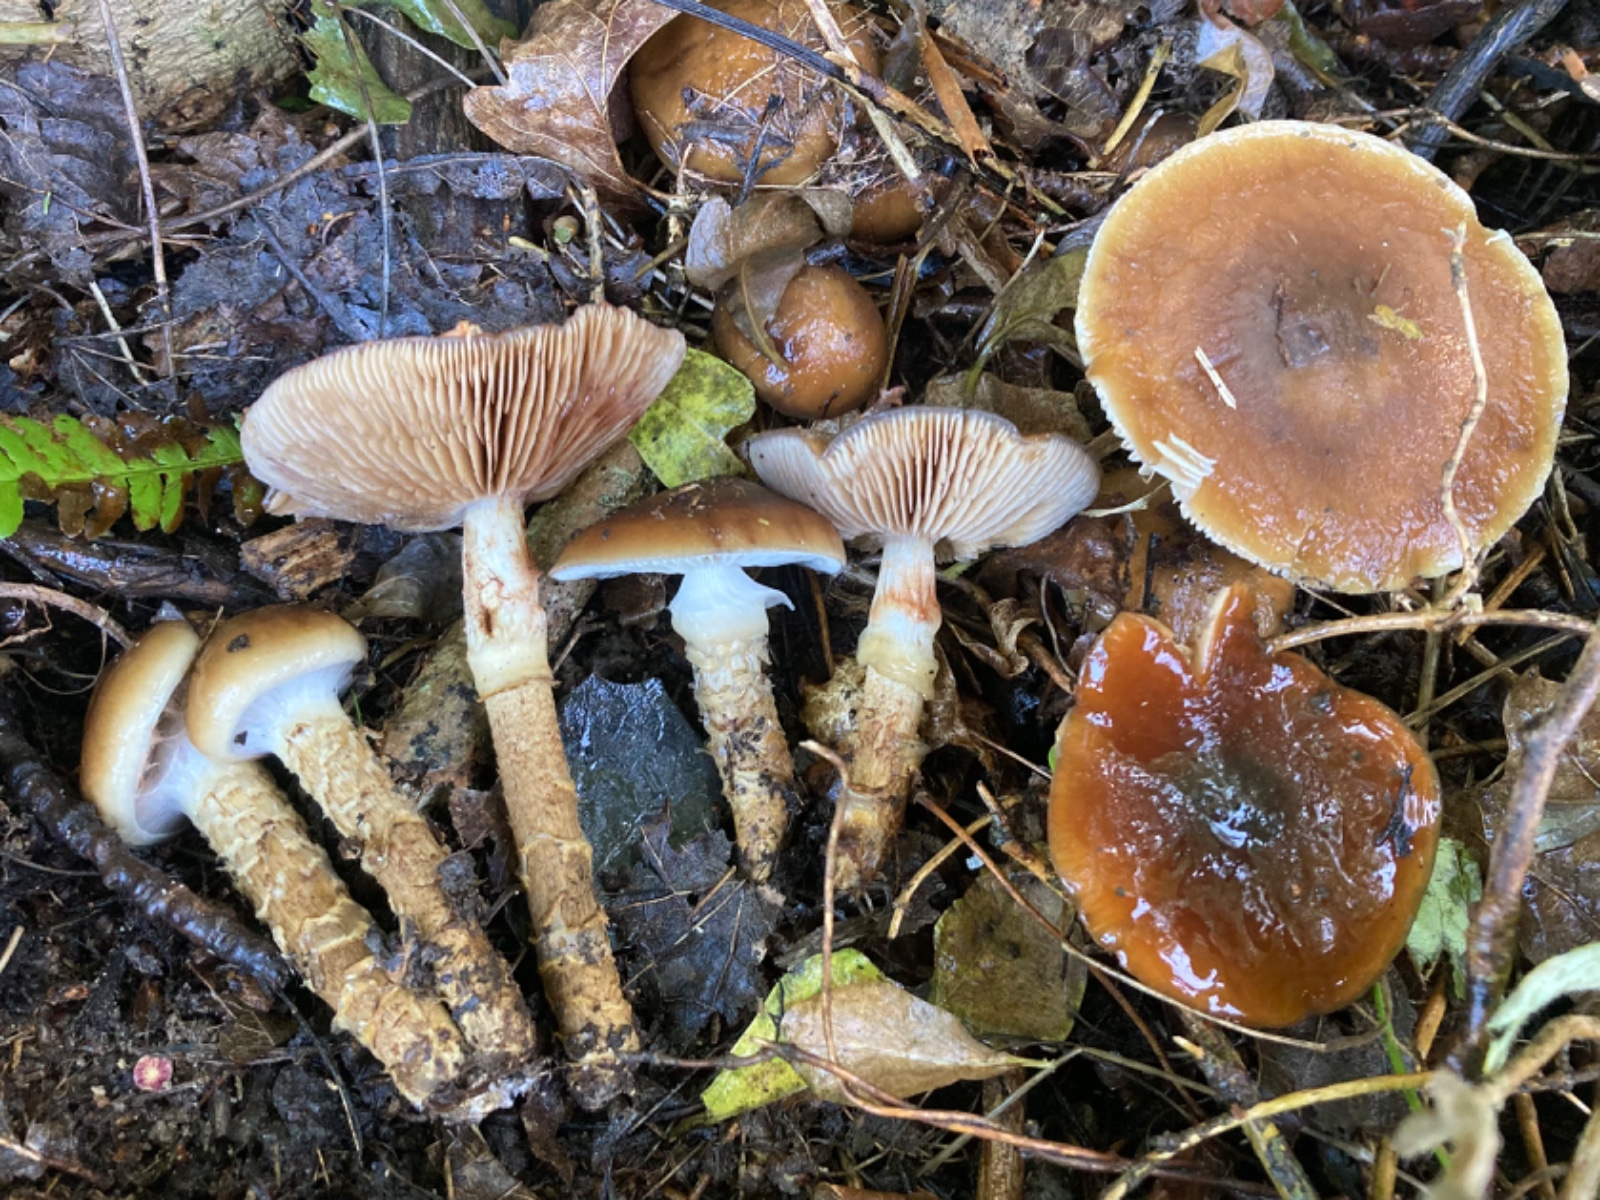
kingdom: Fungi
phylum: Basidiomycota
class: Agaricomycetes
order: Agaricales
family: Cortinariaceae
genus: Cortinarius
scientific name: Cortinarius trivialis
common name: Girdled webcap
